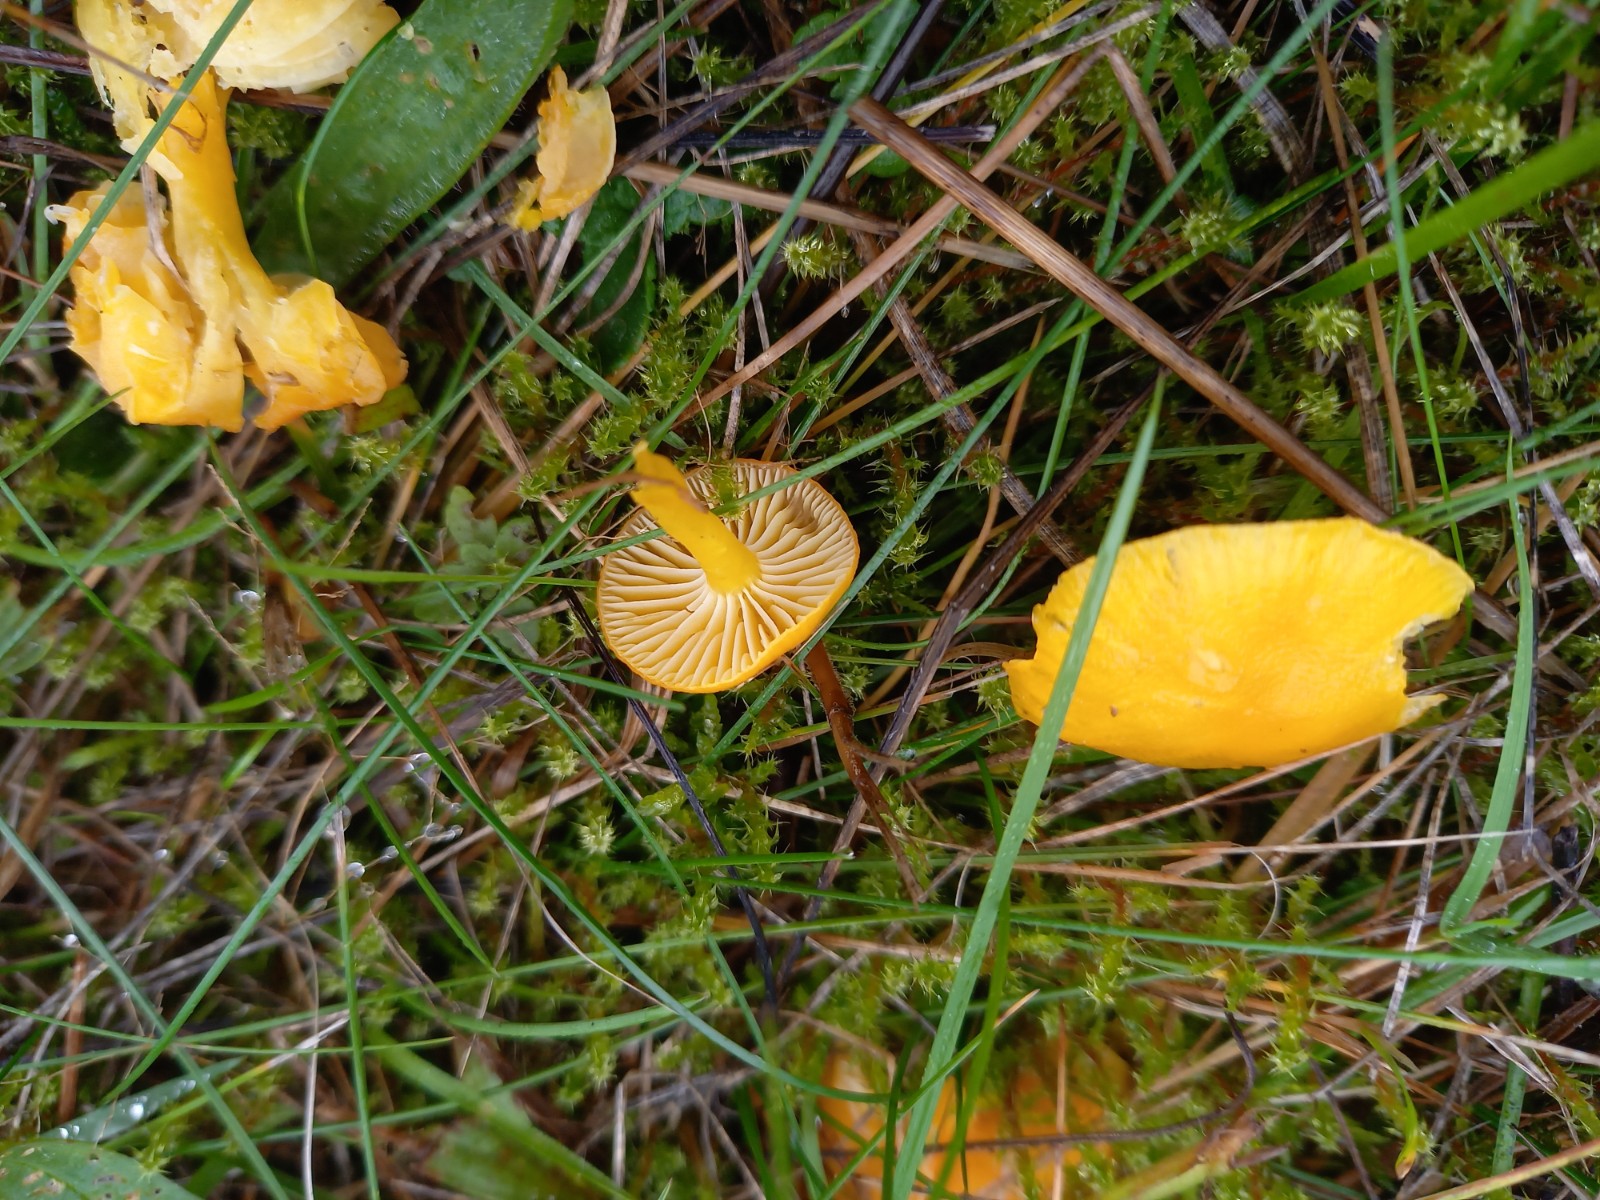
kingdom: Fungi
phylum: Basidiomycota
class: Agaricomycetes
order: Agaricales
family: Hygrophoraceae
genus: Hygrocybe
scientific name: Hygrocybe ceracea
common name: voksgul vokshat
